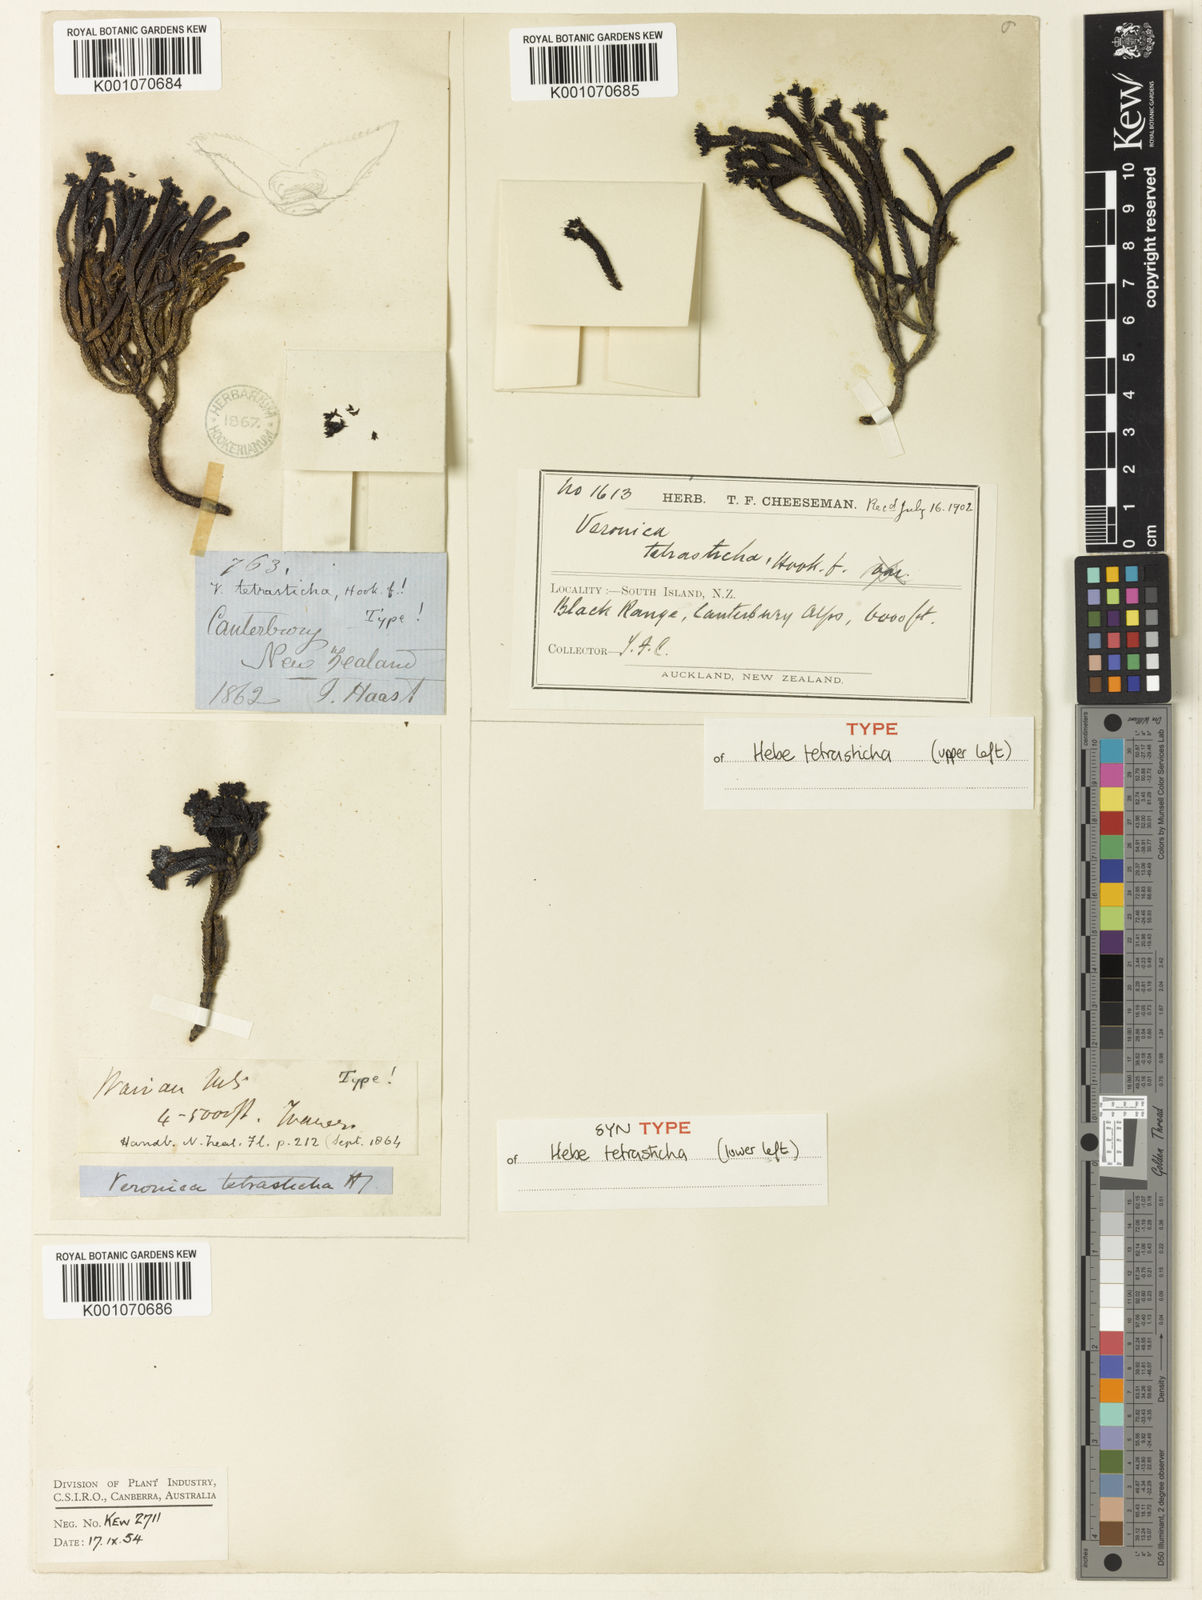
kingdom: Plantae
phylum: Tracheophyta
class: Magnoliopsida
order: Lamiales
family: Plantaginaceae
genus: Veronica
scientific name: Veronica
